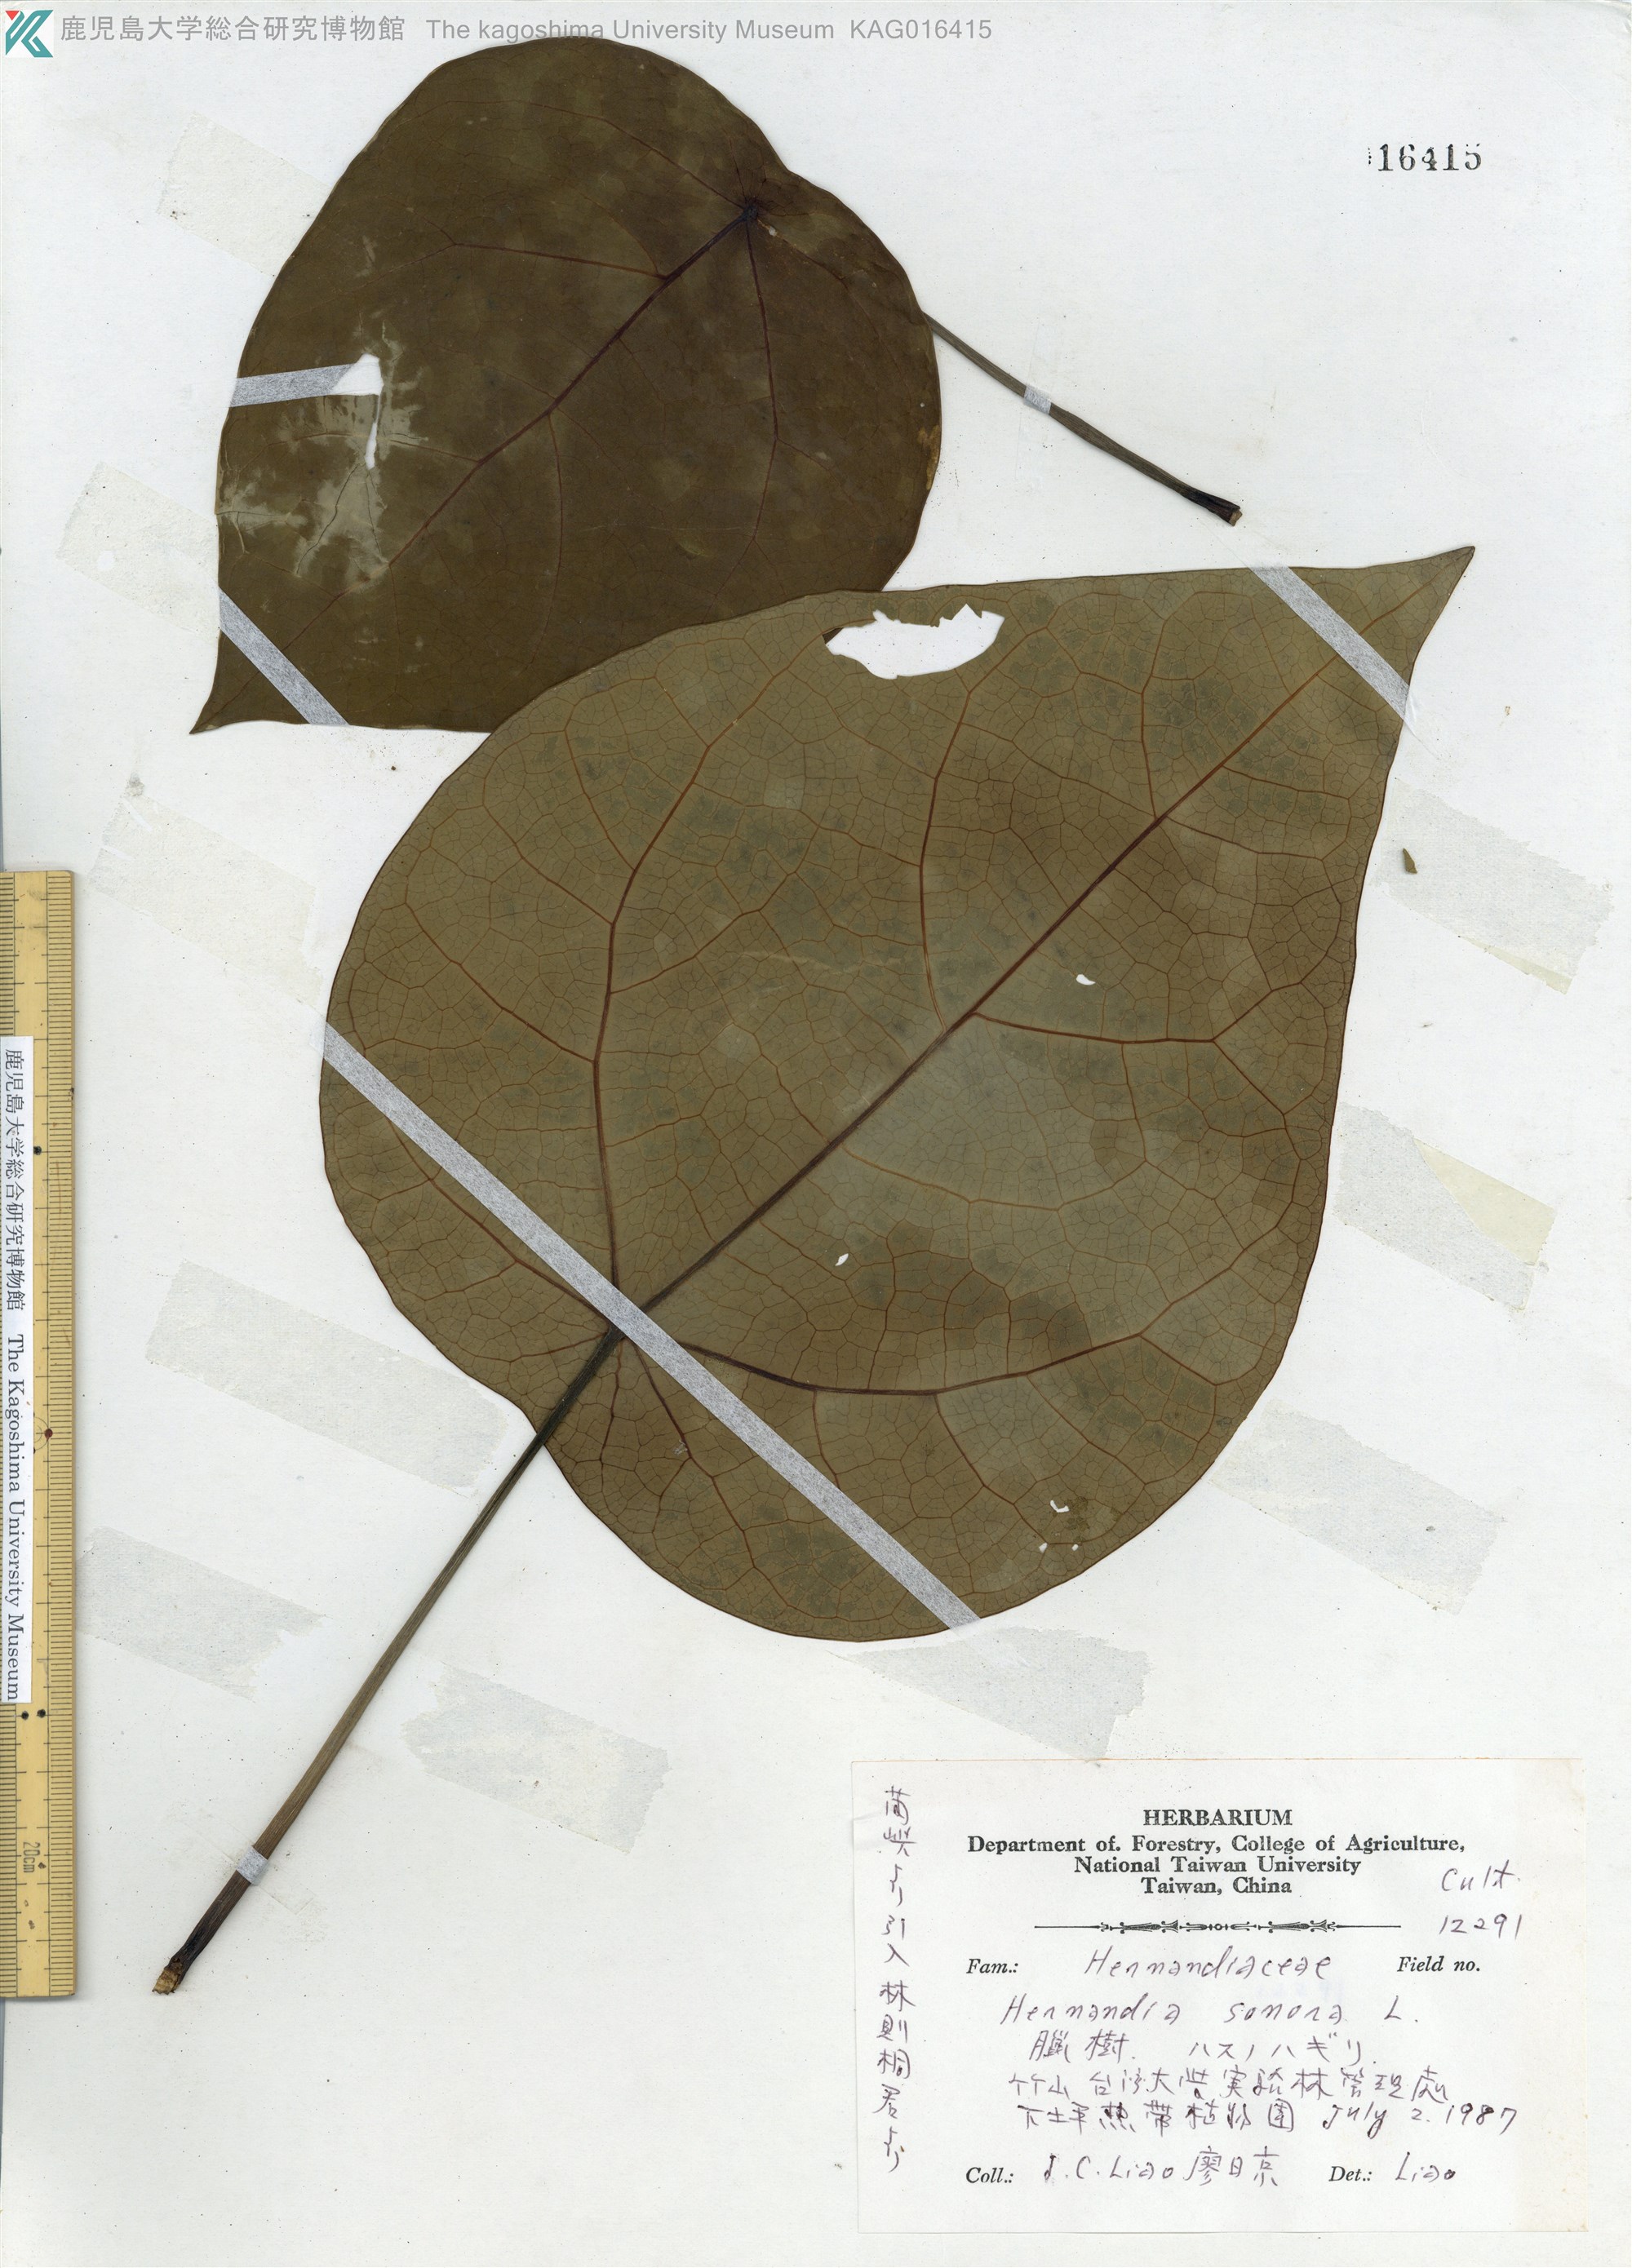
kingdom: Plantae
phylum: Tracheophyta
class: Magnoliopsida
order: Laurales
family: Hernandiaceae
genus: Hernandia
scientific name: Hernandia nymphaeifolia
